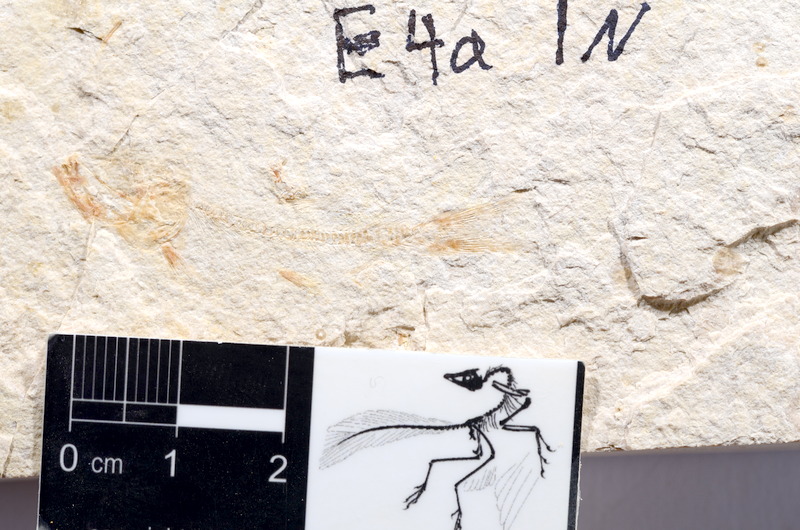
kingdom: Animalia
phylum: Chordata
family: Ascalaboidae
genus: Tharsis
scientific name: Tharsis dubius
